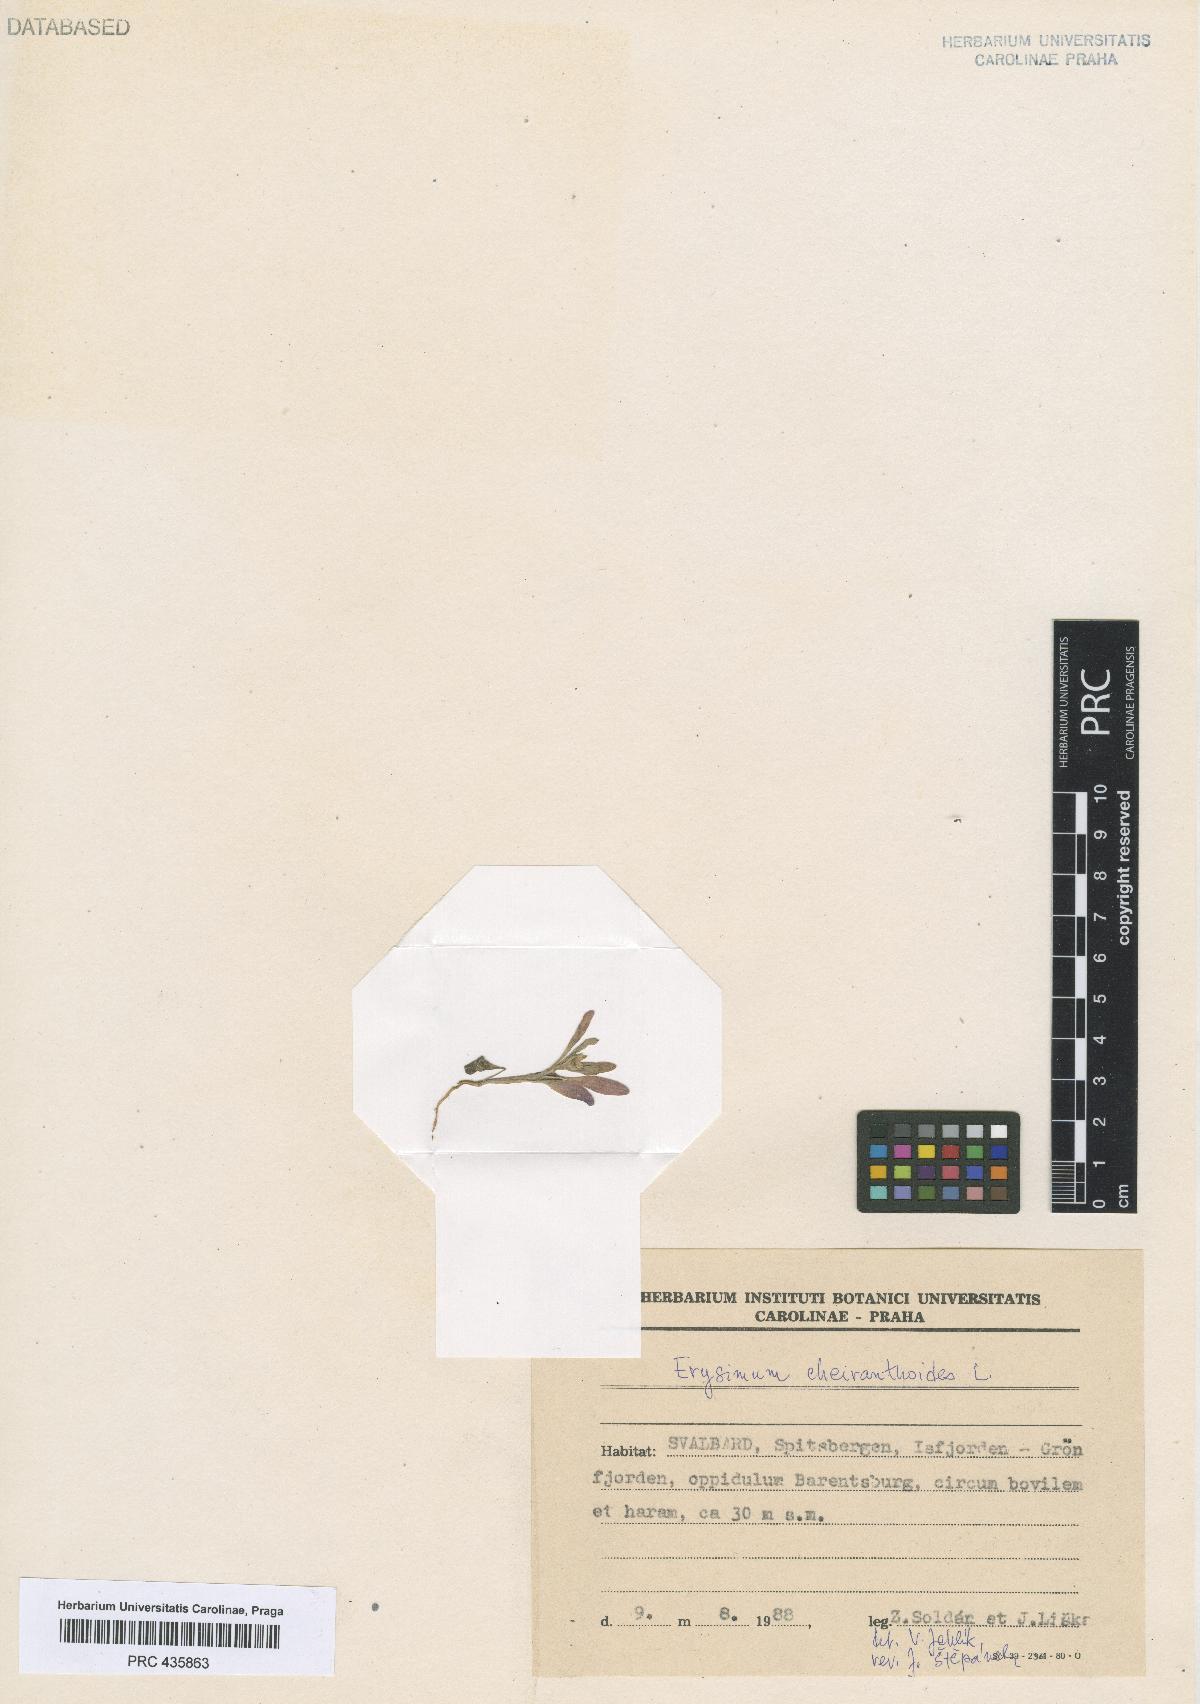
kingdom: Plantae
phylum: Tracheophyta
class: Magnoliopsida
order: Brassicales
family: Brassicaceae
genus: Erysimum
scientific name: Erysimum cheiranthoides
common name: Treacle mustard
